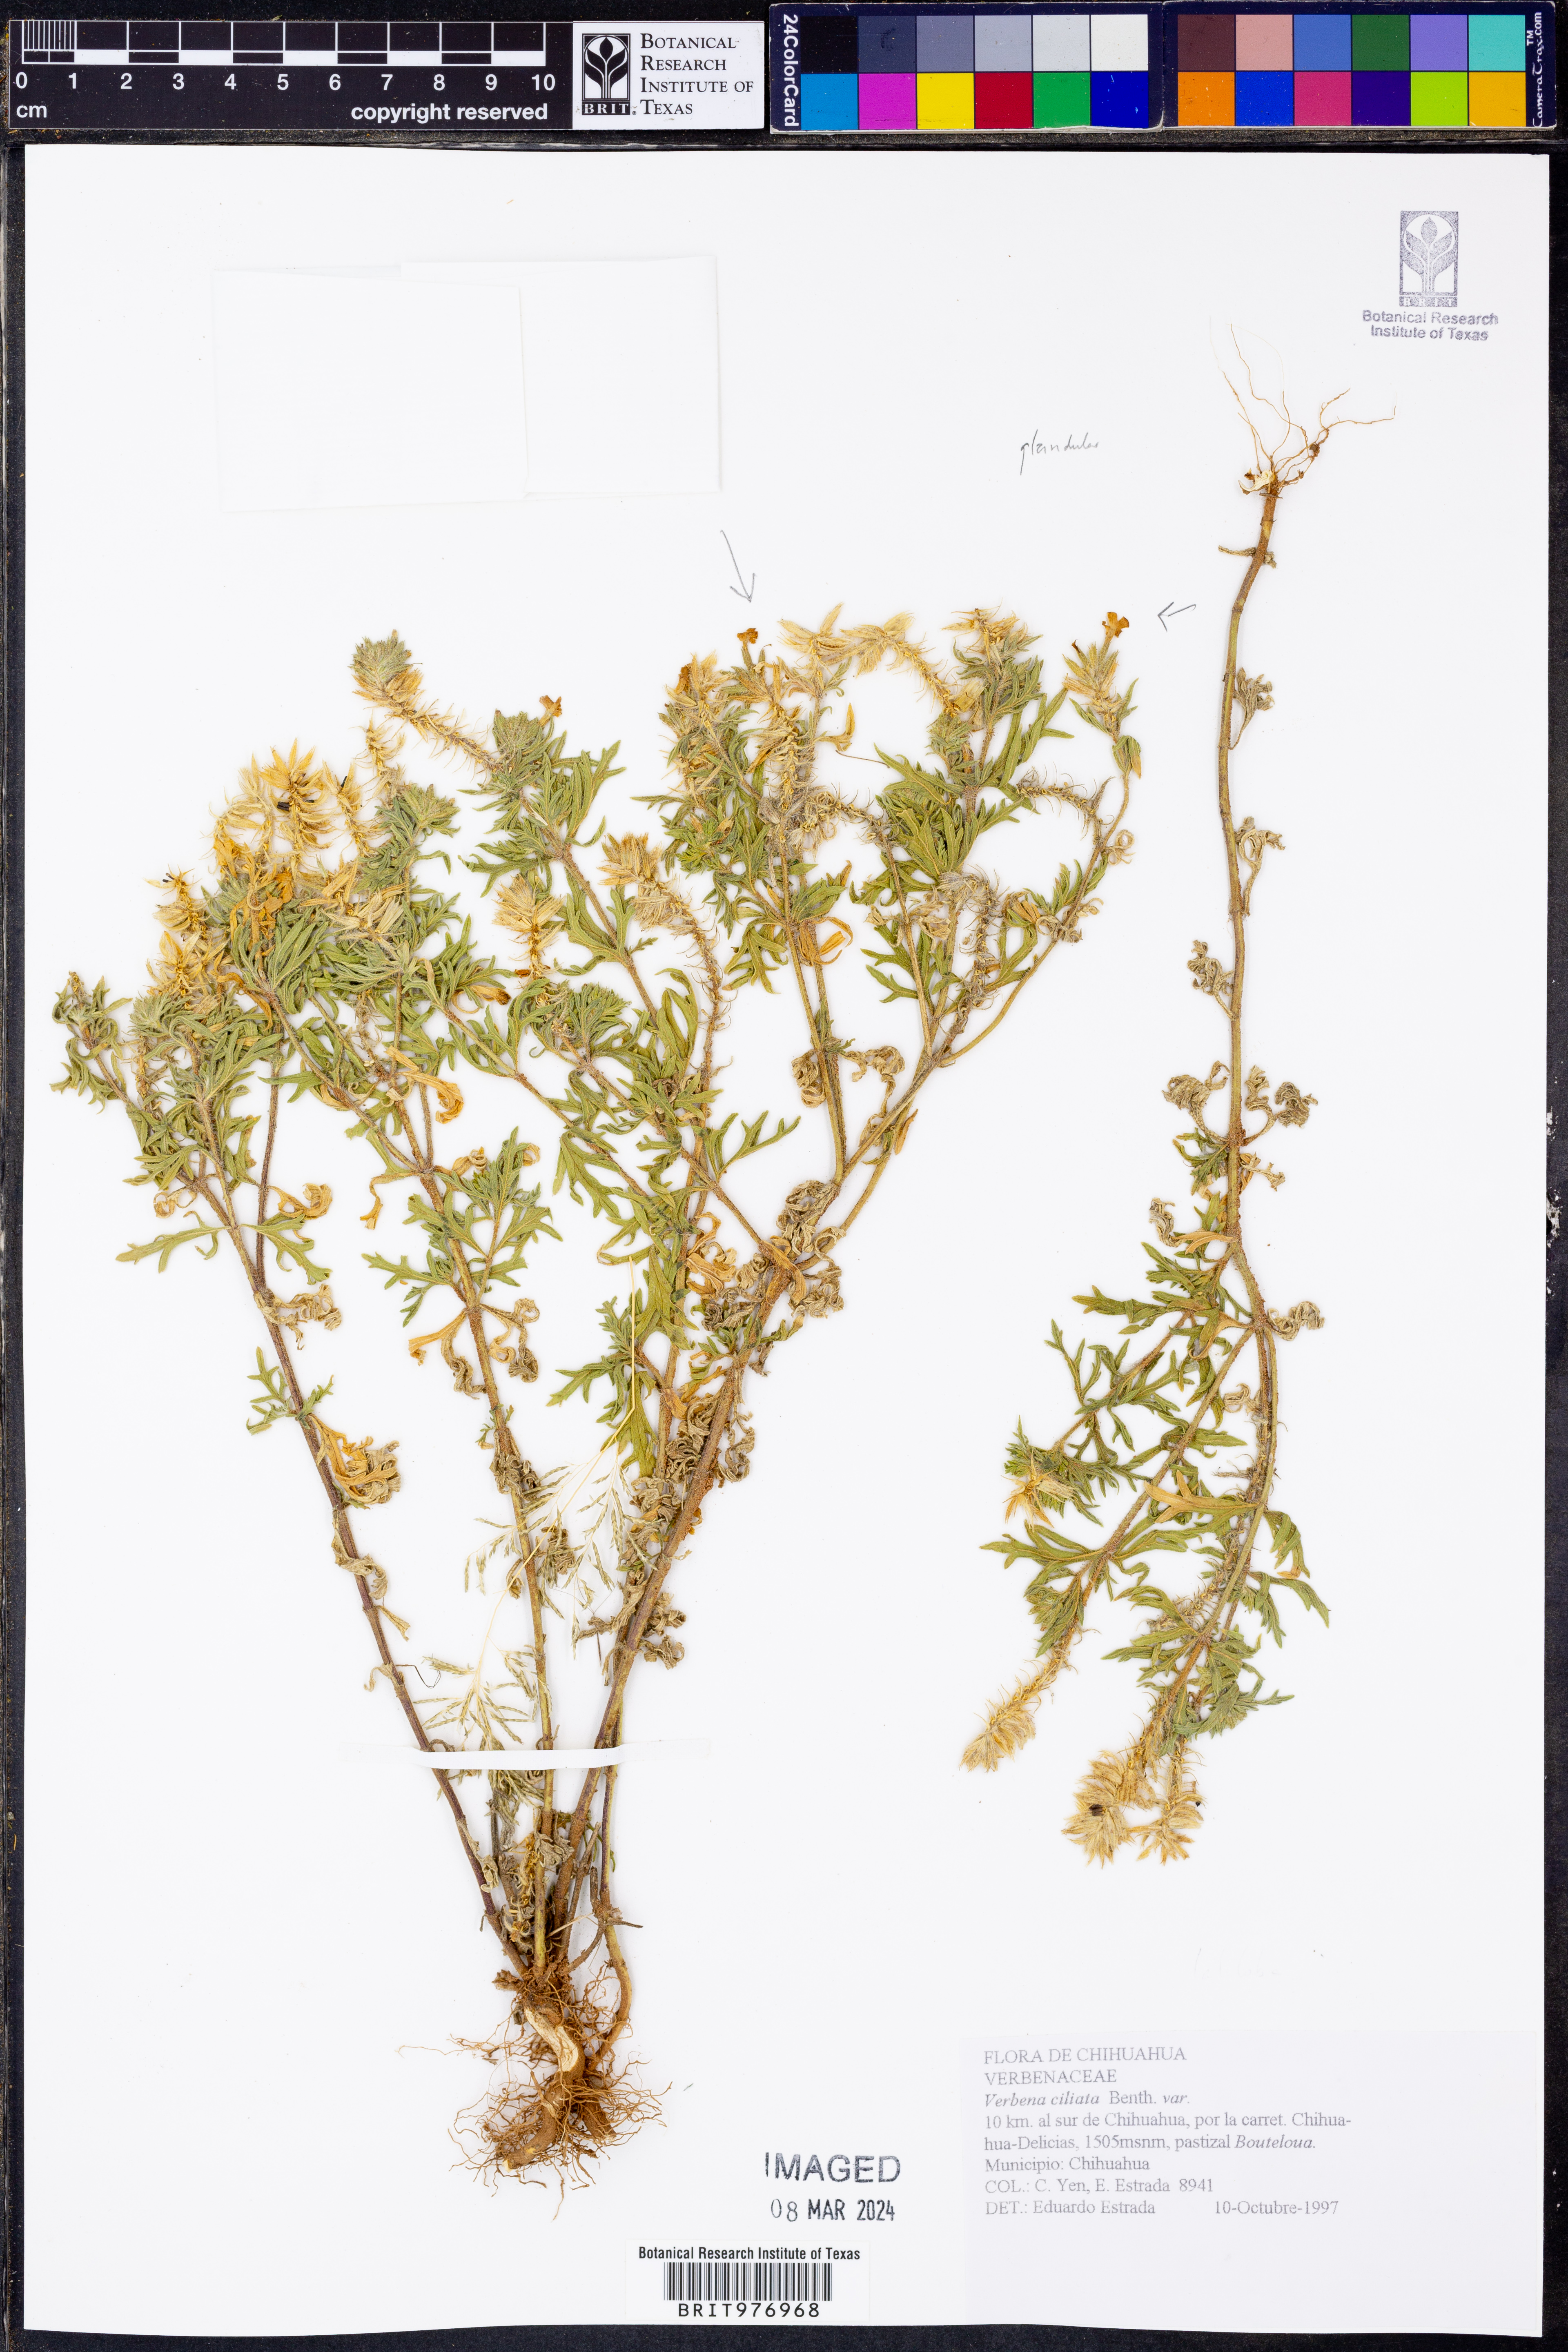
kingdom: Plantae
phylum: Tracheophyta
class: Magnoliopsida
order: Lamiales
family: Verbenaceae
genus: Verbena
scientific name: Verbena
